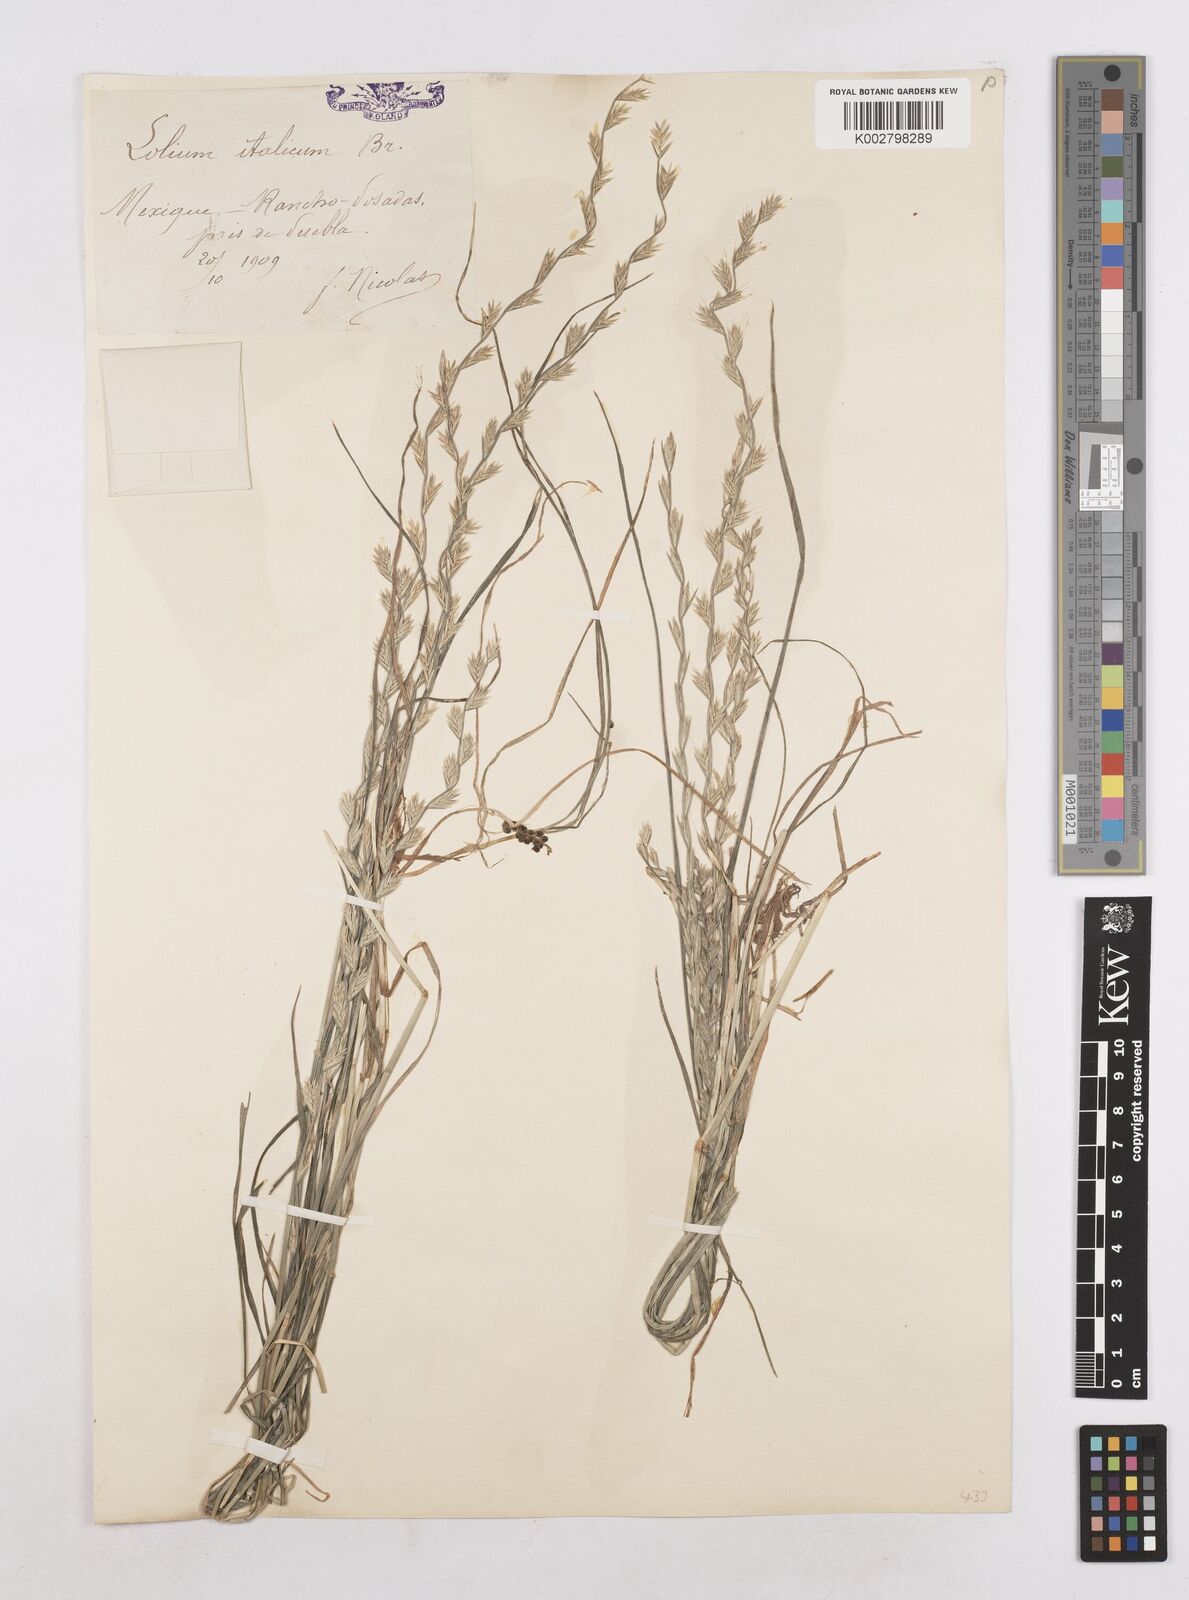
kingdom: Plantae
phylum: Tracheophyta
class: Liliopsida
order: Poales
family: Poaceae
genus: Lolium
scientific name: Lolium multiflorum
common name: Annual ryegrass
